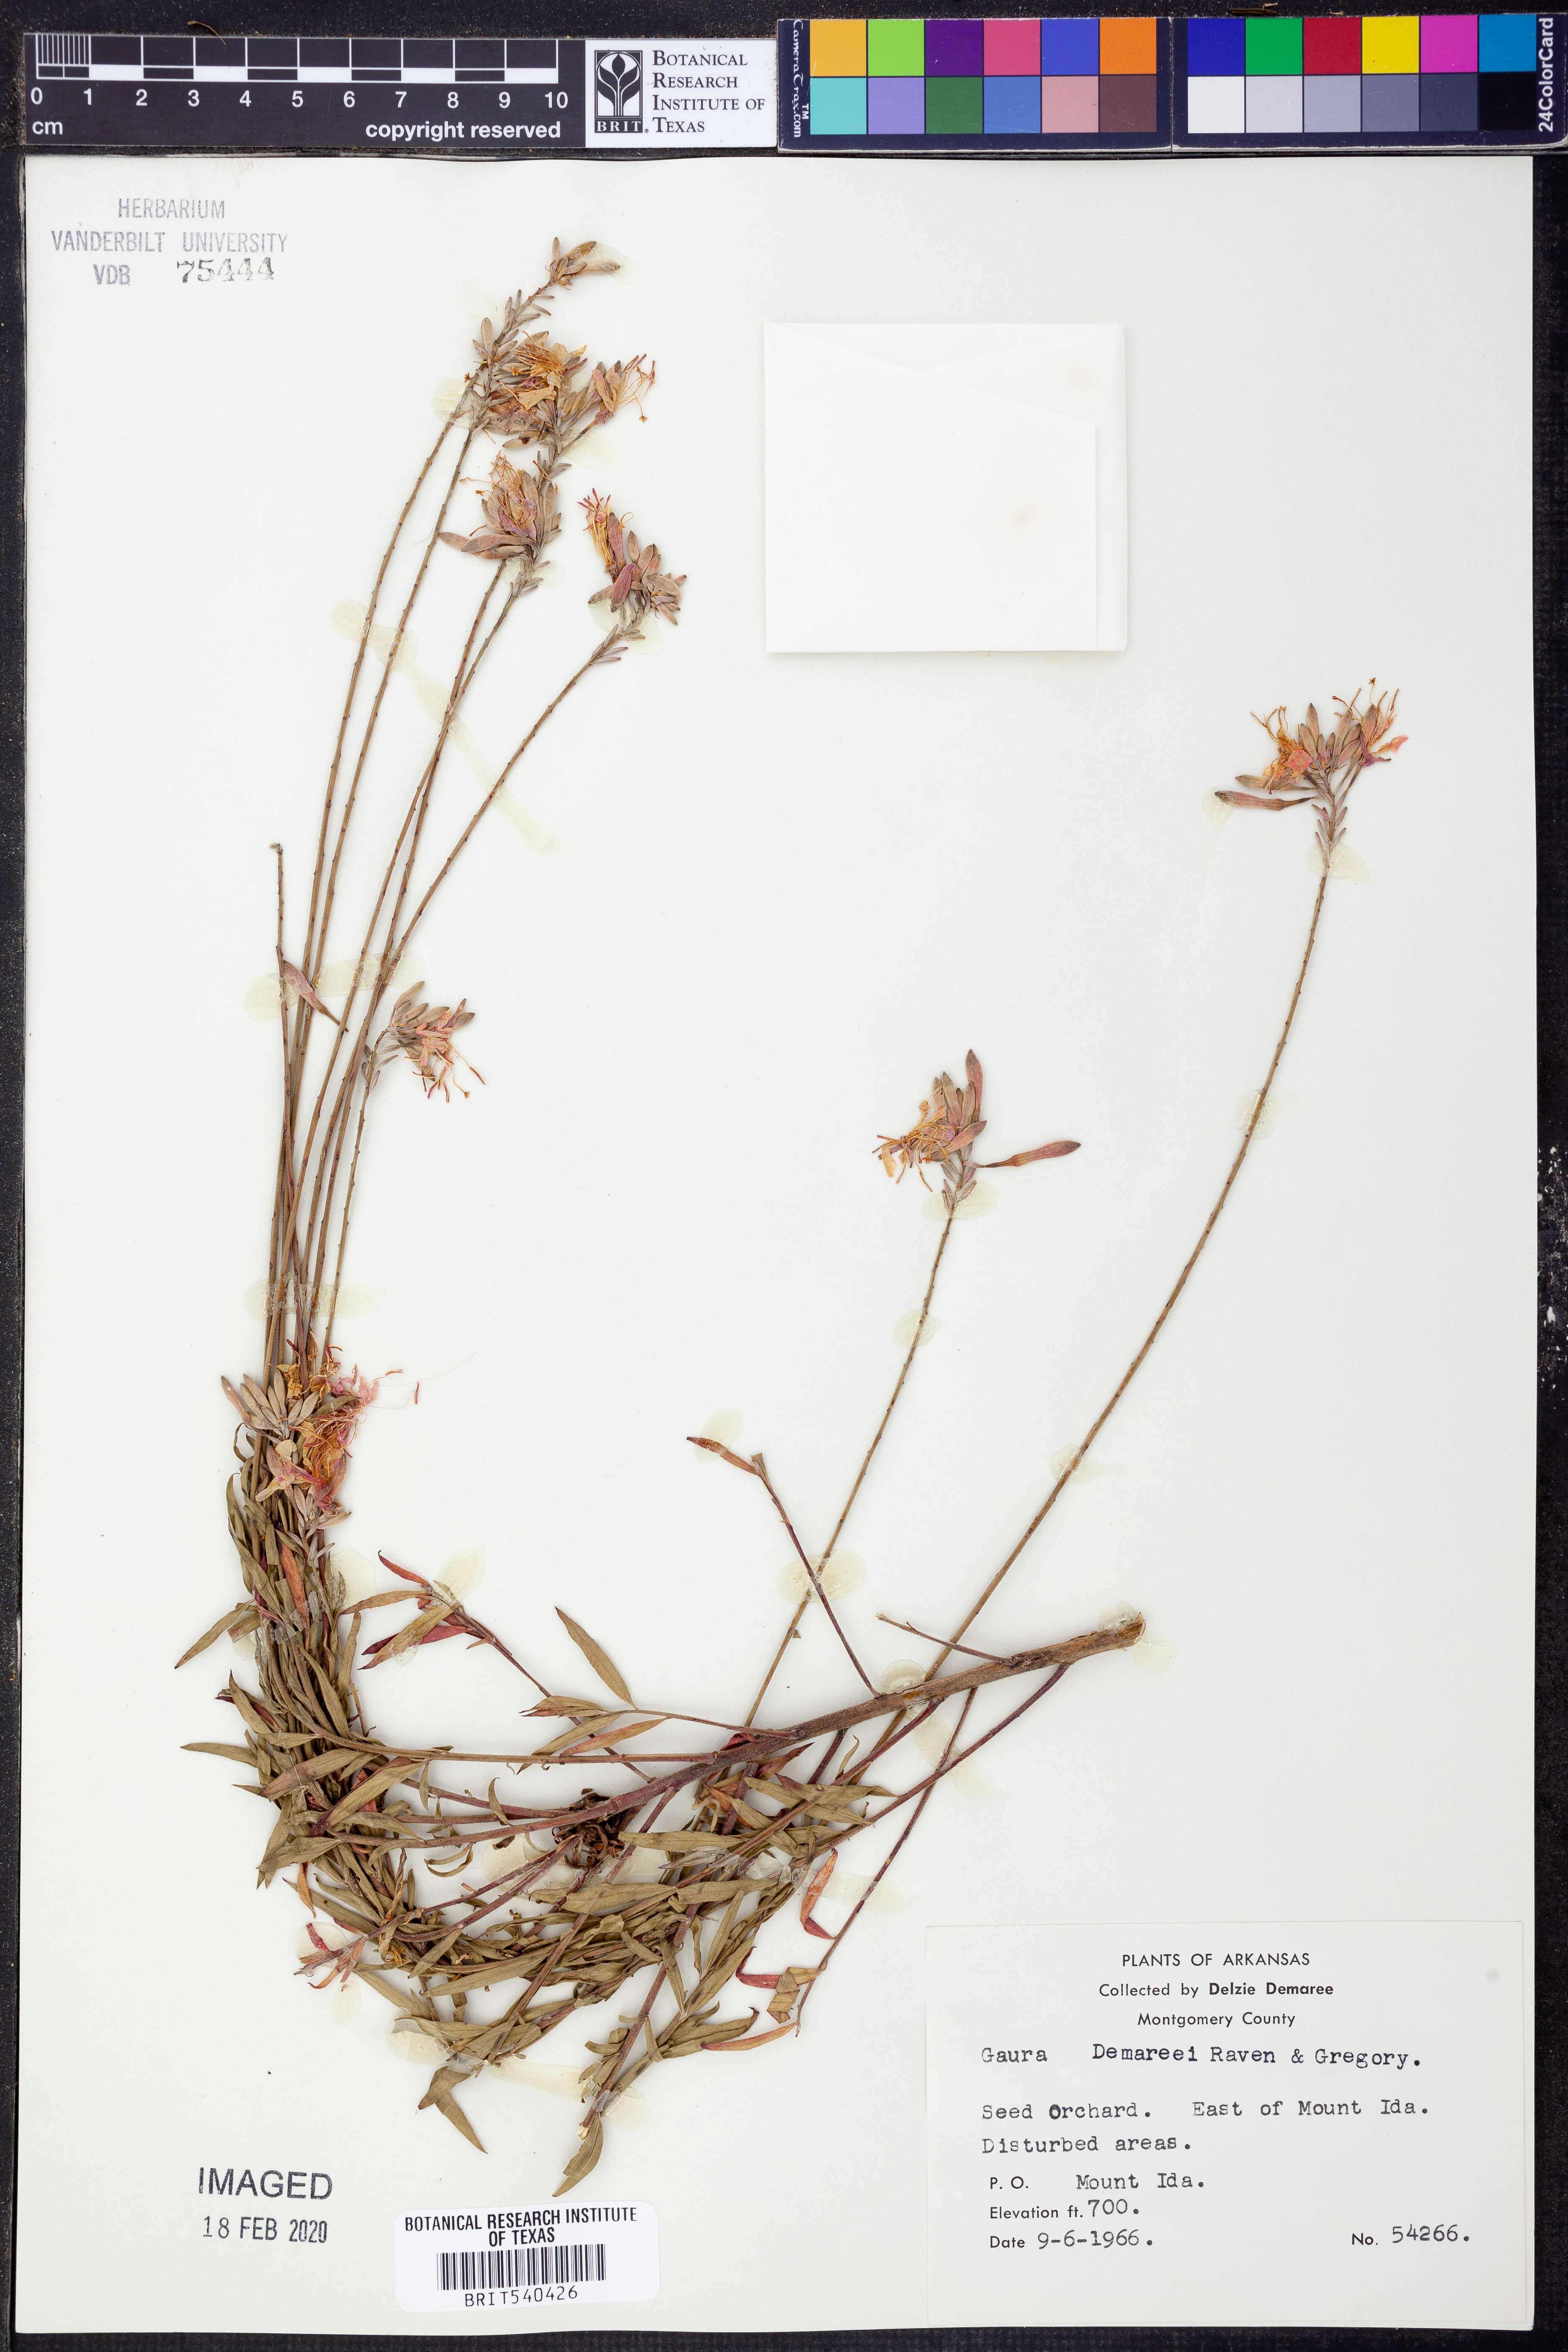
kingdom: Plantae
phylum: Tracheophyta
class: Magnoliopsida
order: Myrtales
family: Onagraceae
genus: Oenothera
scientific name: Oenothera
